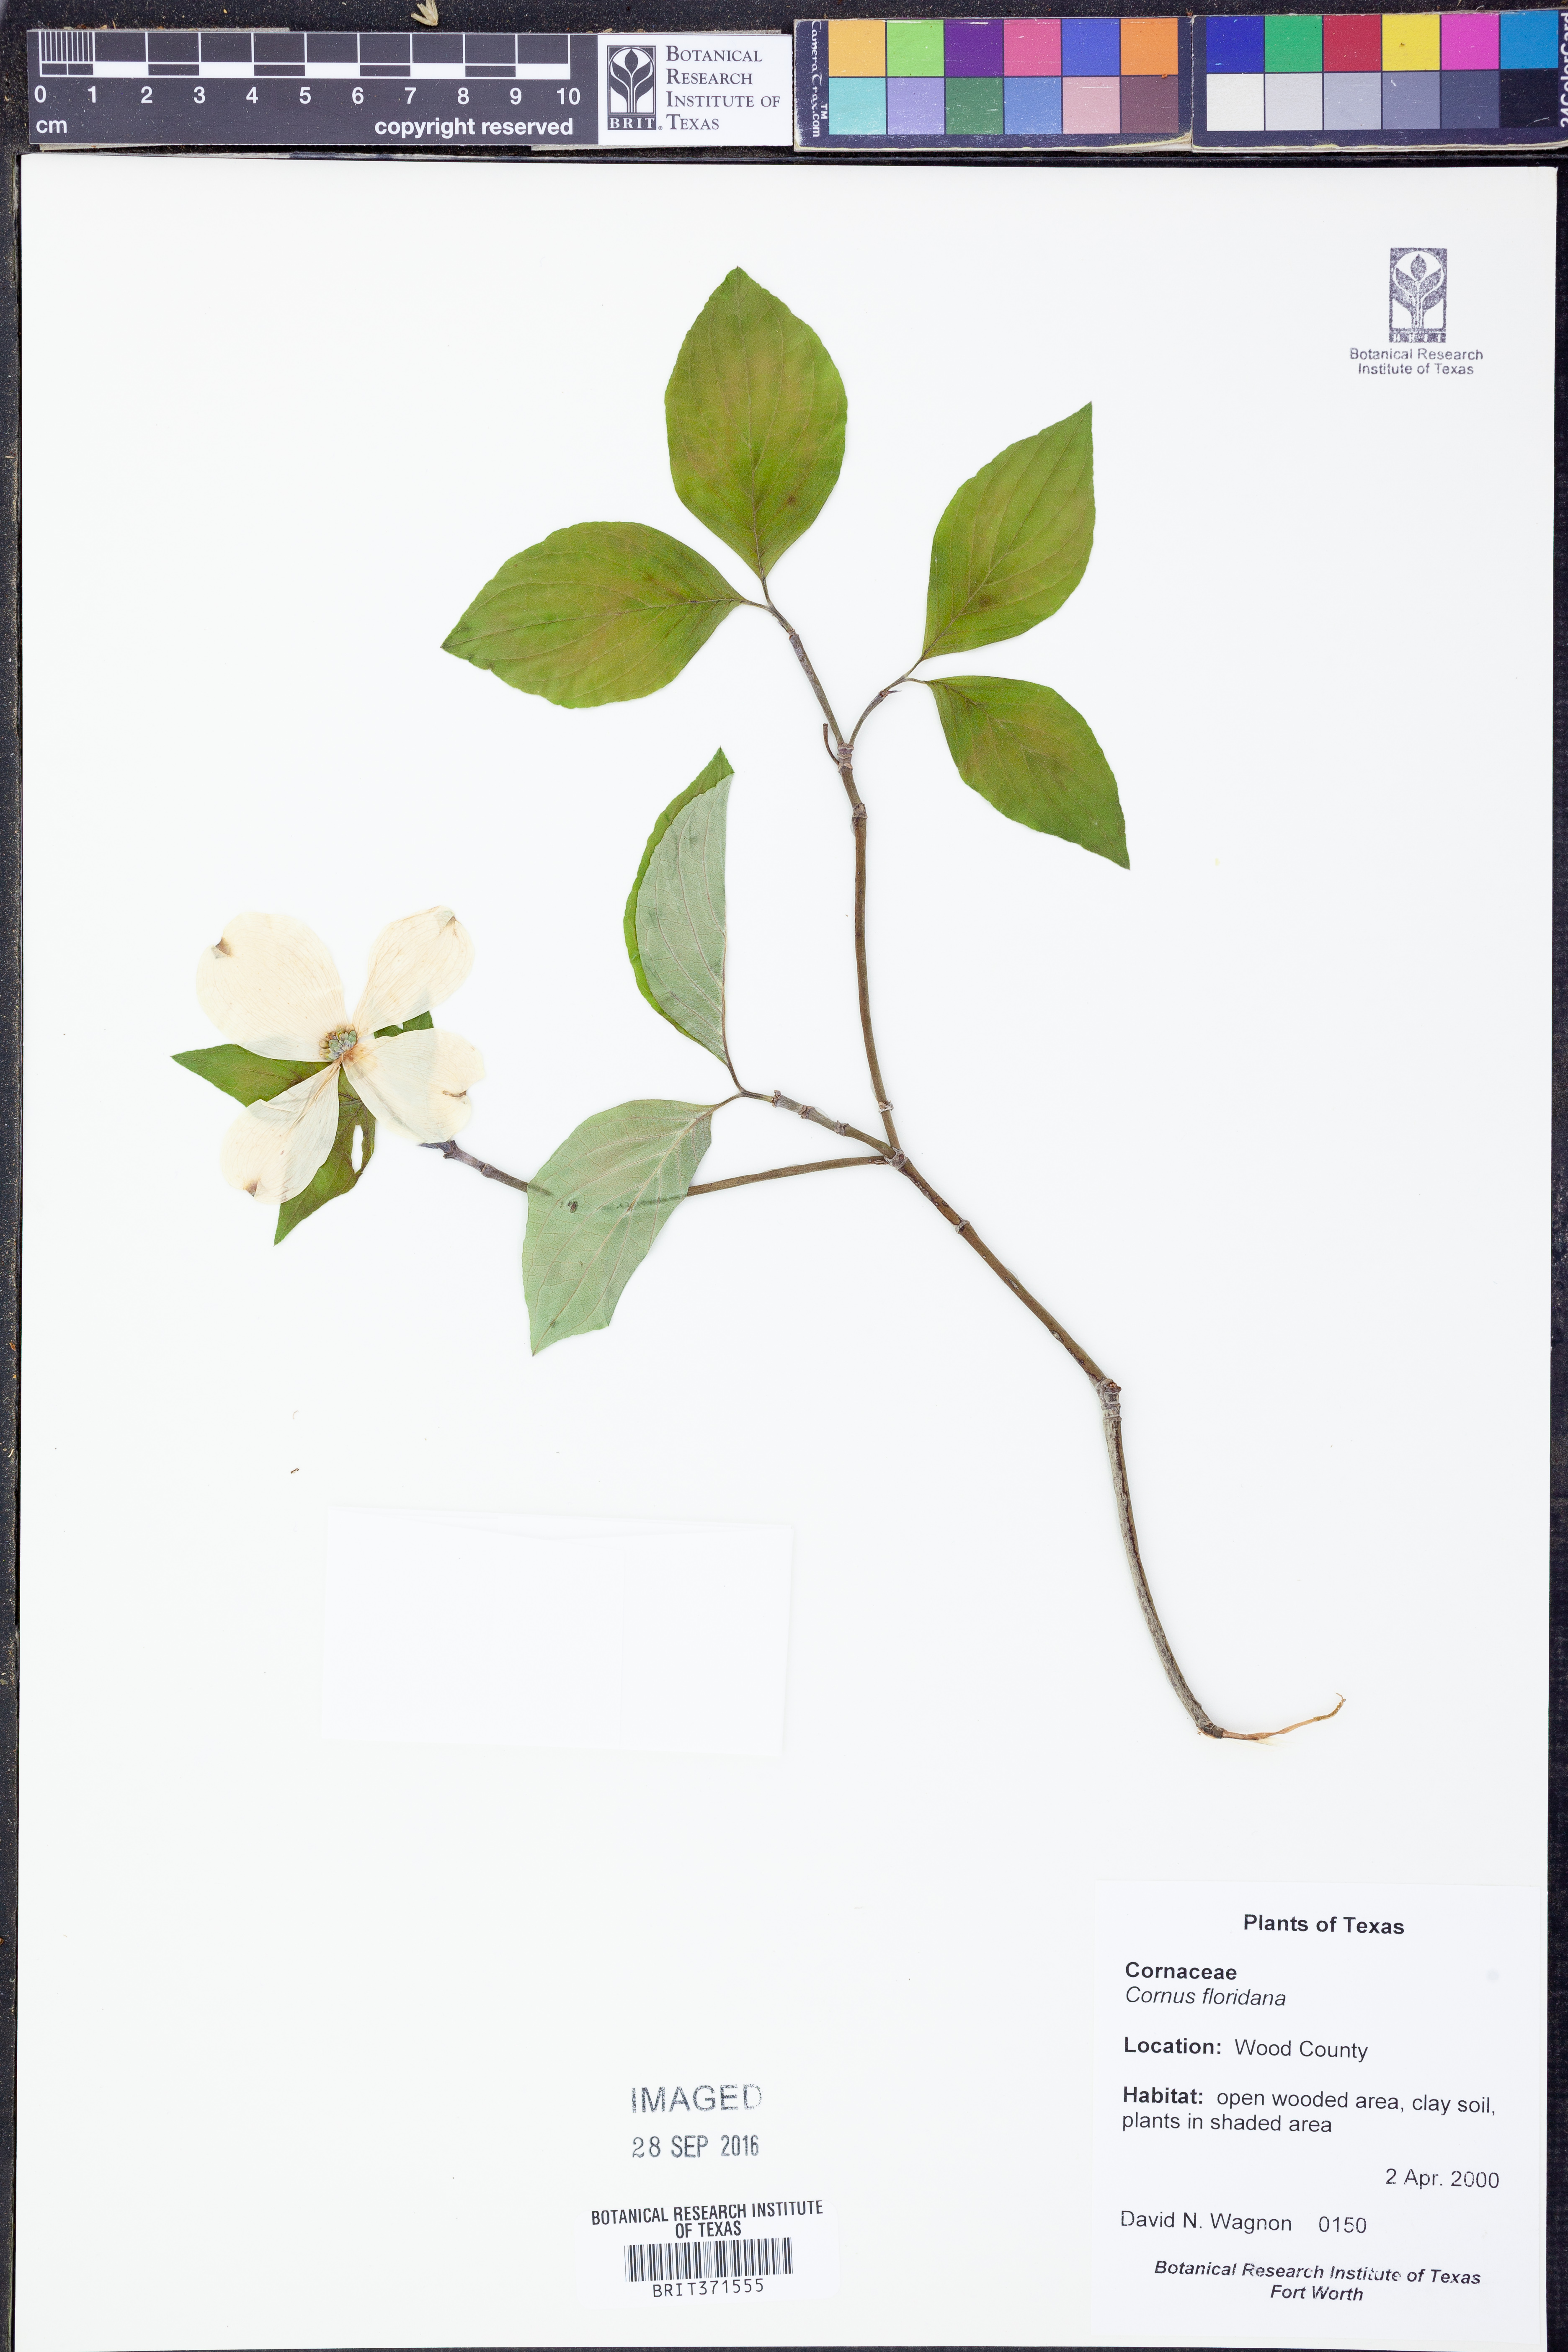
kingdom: Plantae
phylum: Tracheophyta
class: Magnoliopsida
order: Cornales
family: Cornaceae
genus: Cornus
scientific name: Cornus florida
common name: Flowering dogwood
